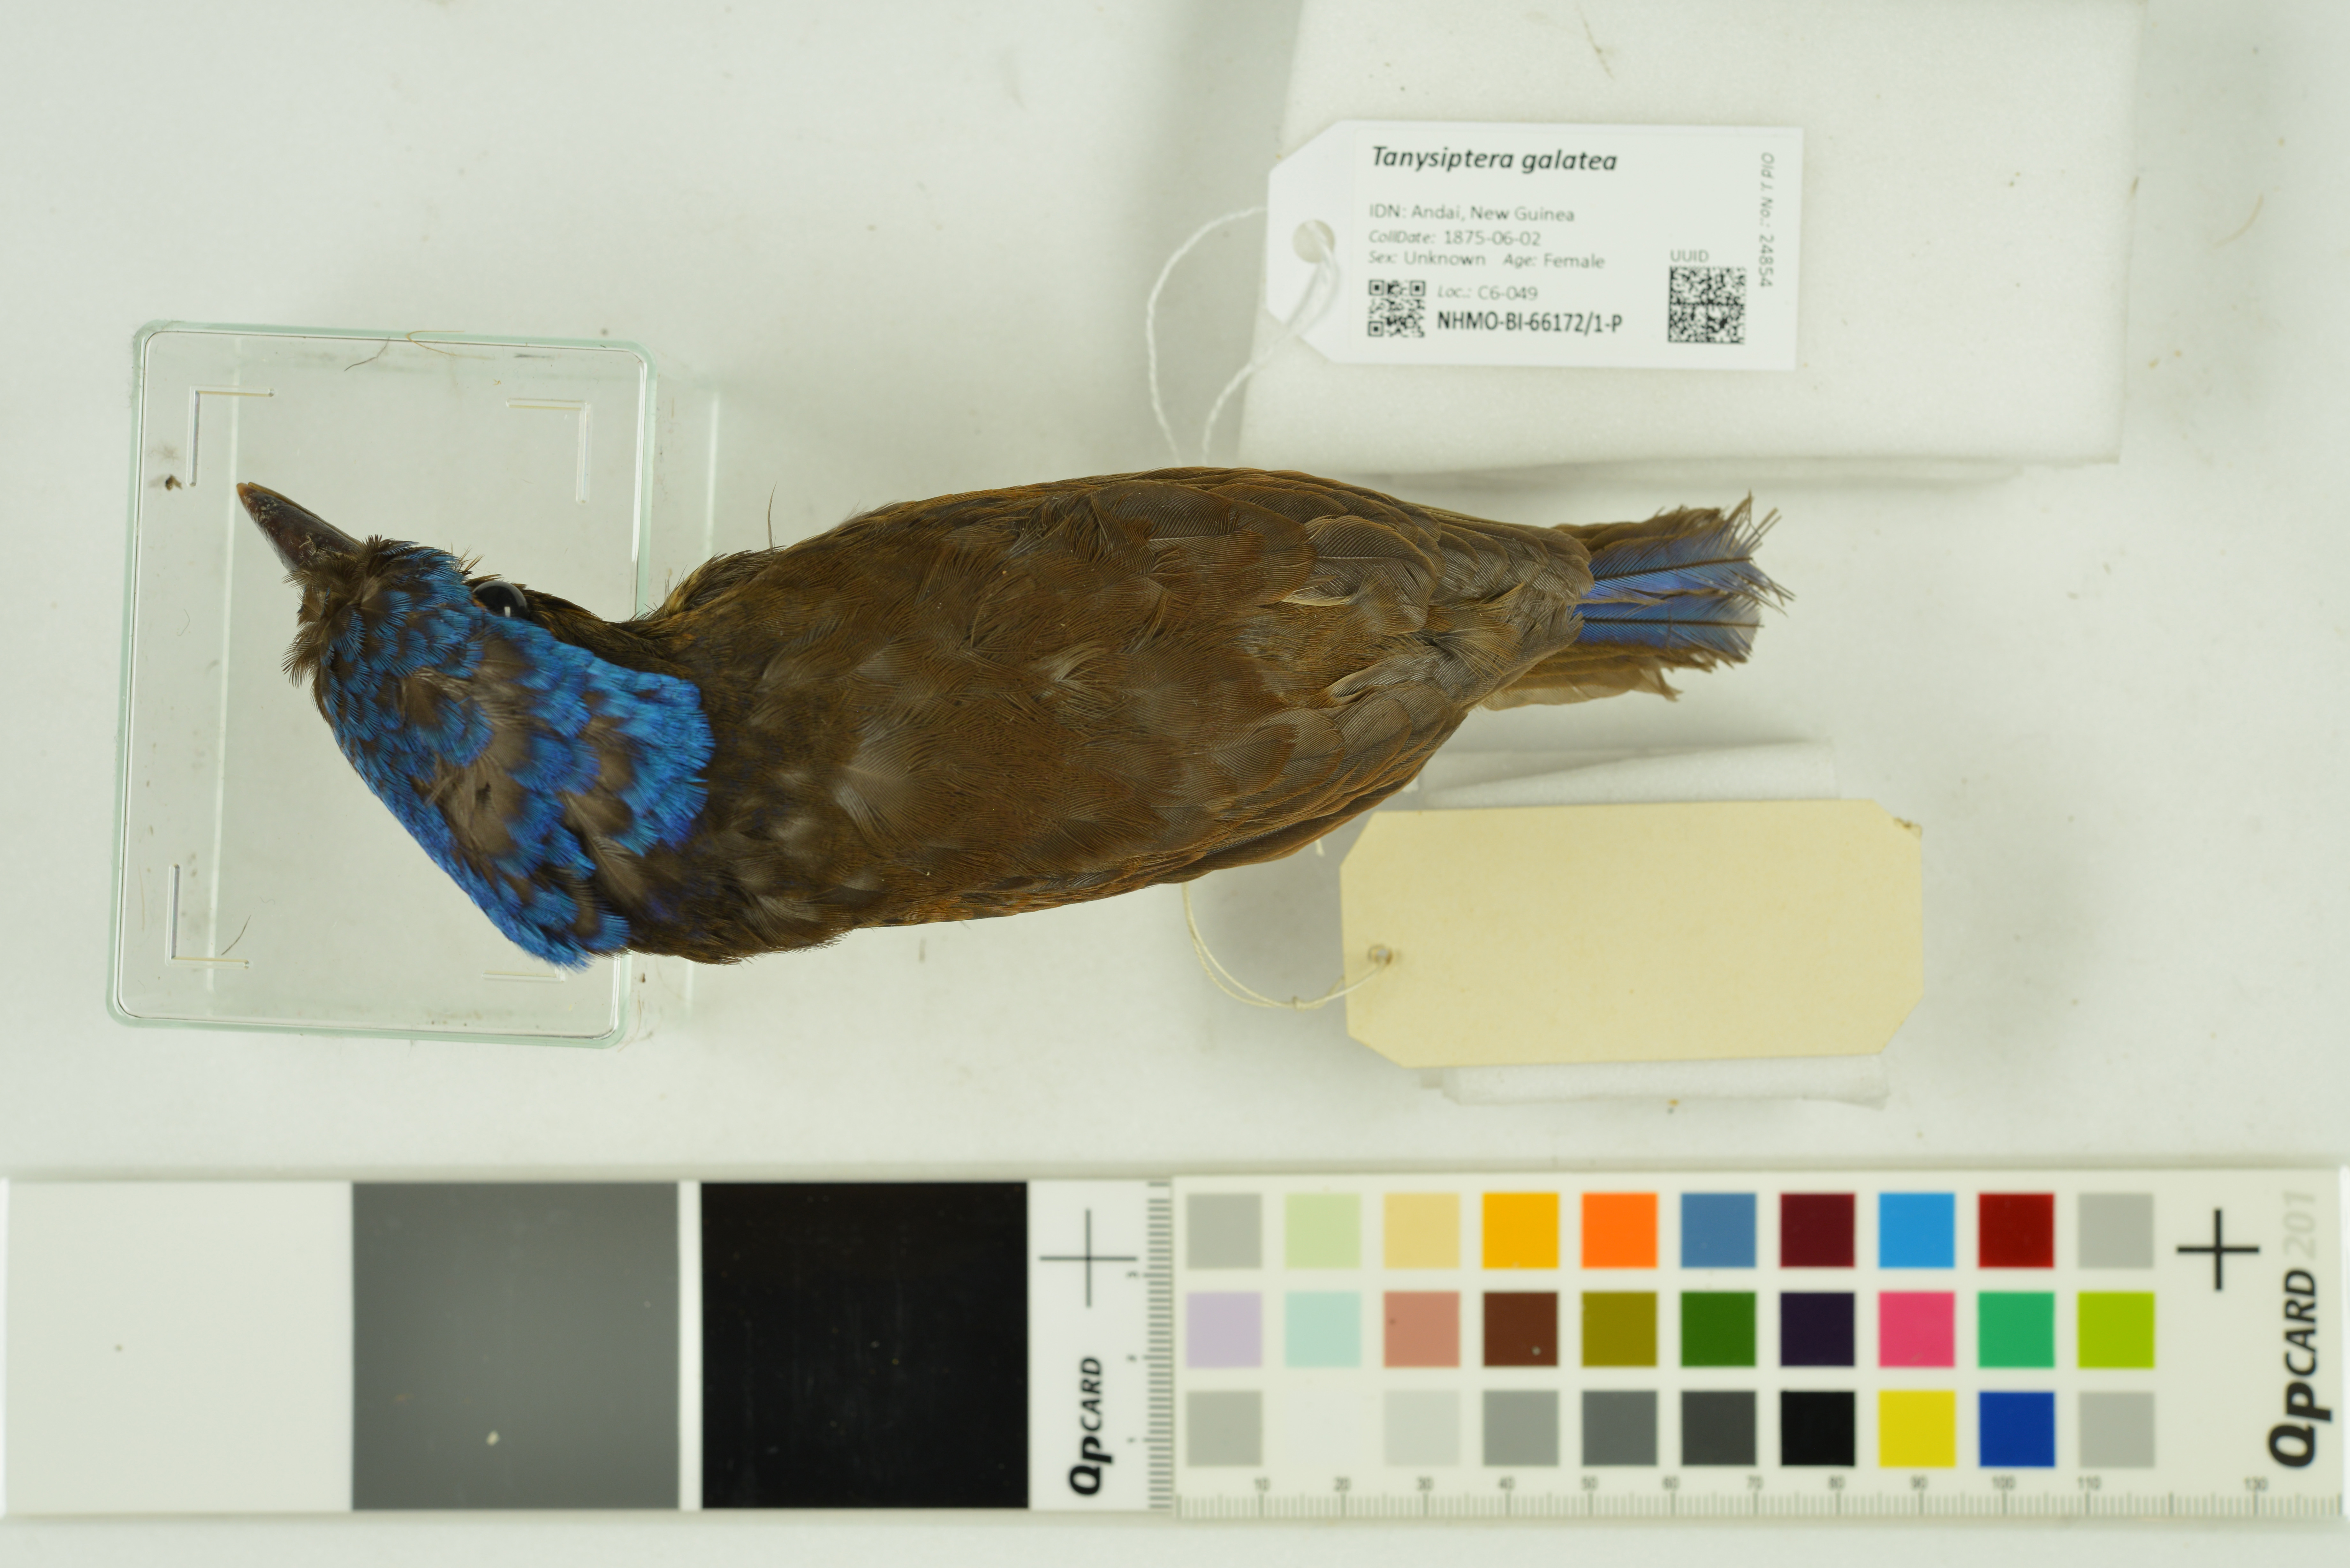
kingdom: Animalia
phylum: Chordata
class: Aves
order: Coraciiformes
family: Alcedinidae
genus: Tanysiptera
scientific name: Tanysiptera galatea
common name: Common paradise-kingfisher
